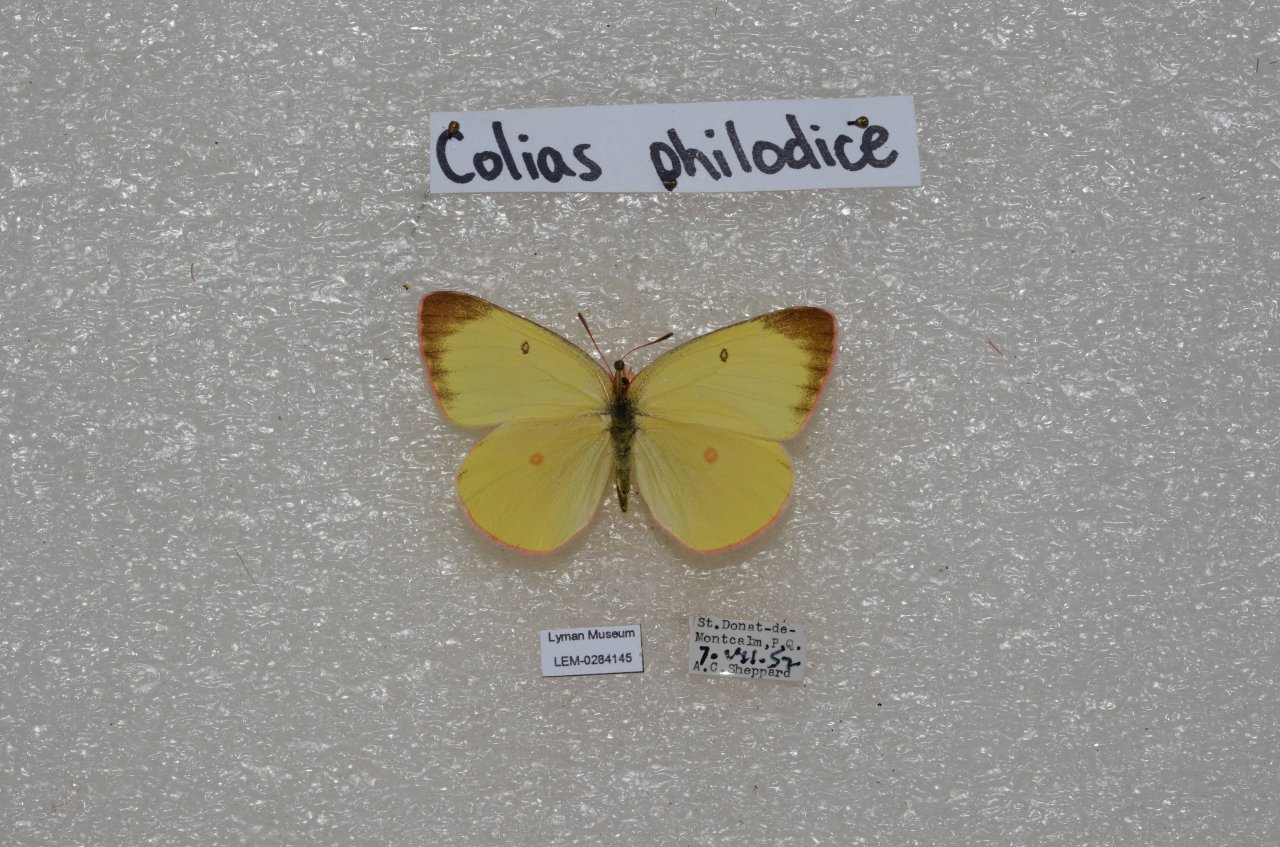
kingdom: Animalia
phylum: Arthropoda
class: Insecta
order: Lepidoptera
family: Pieridae
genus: Colias
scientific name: Colias interior
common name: Pink-edged Sulphur
